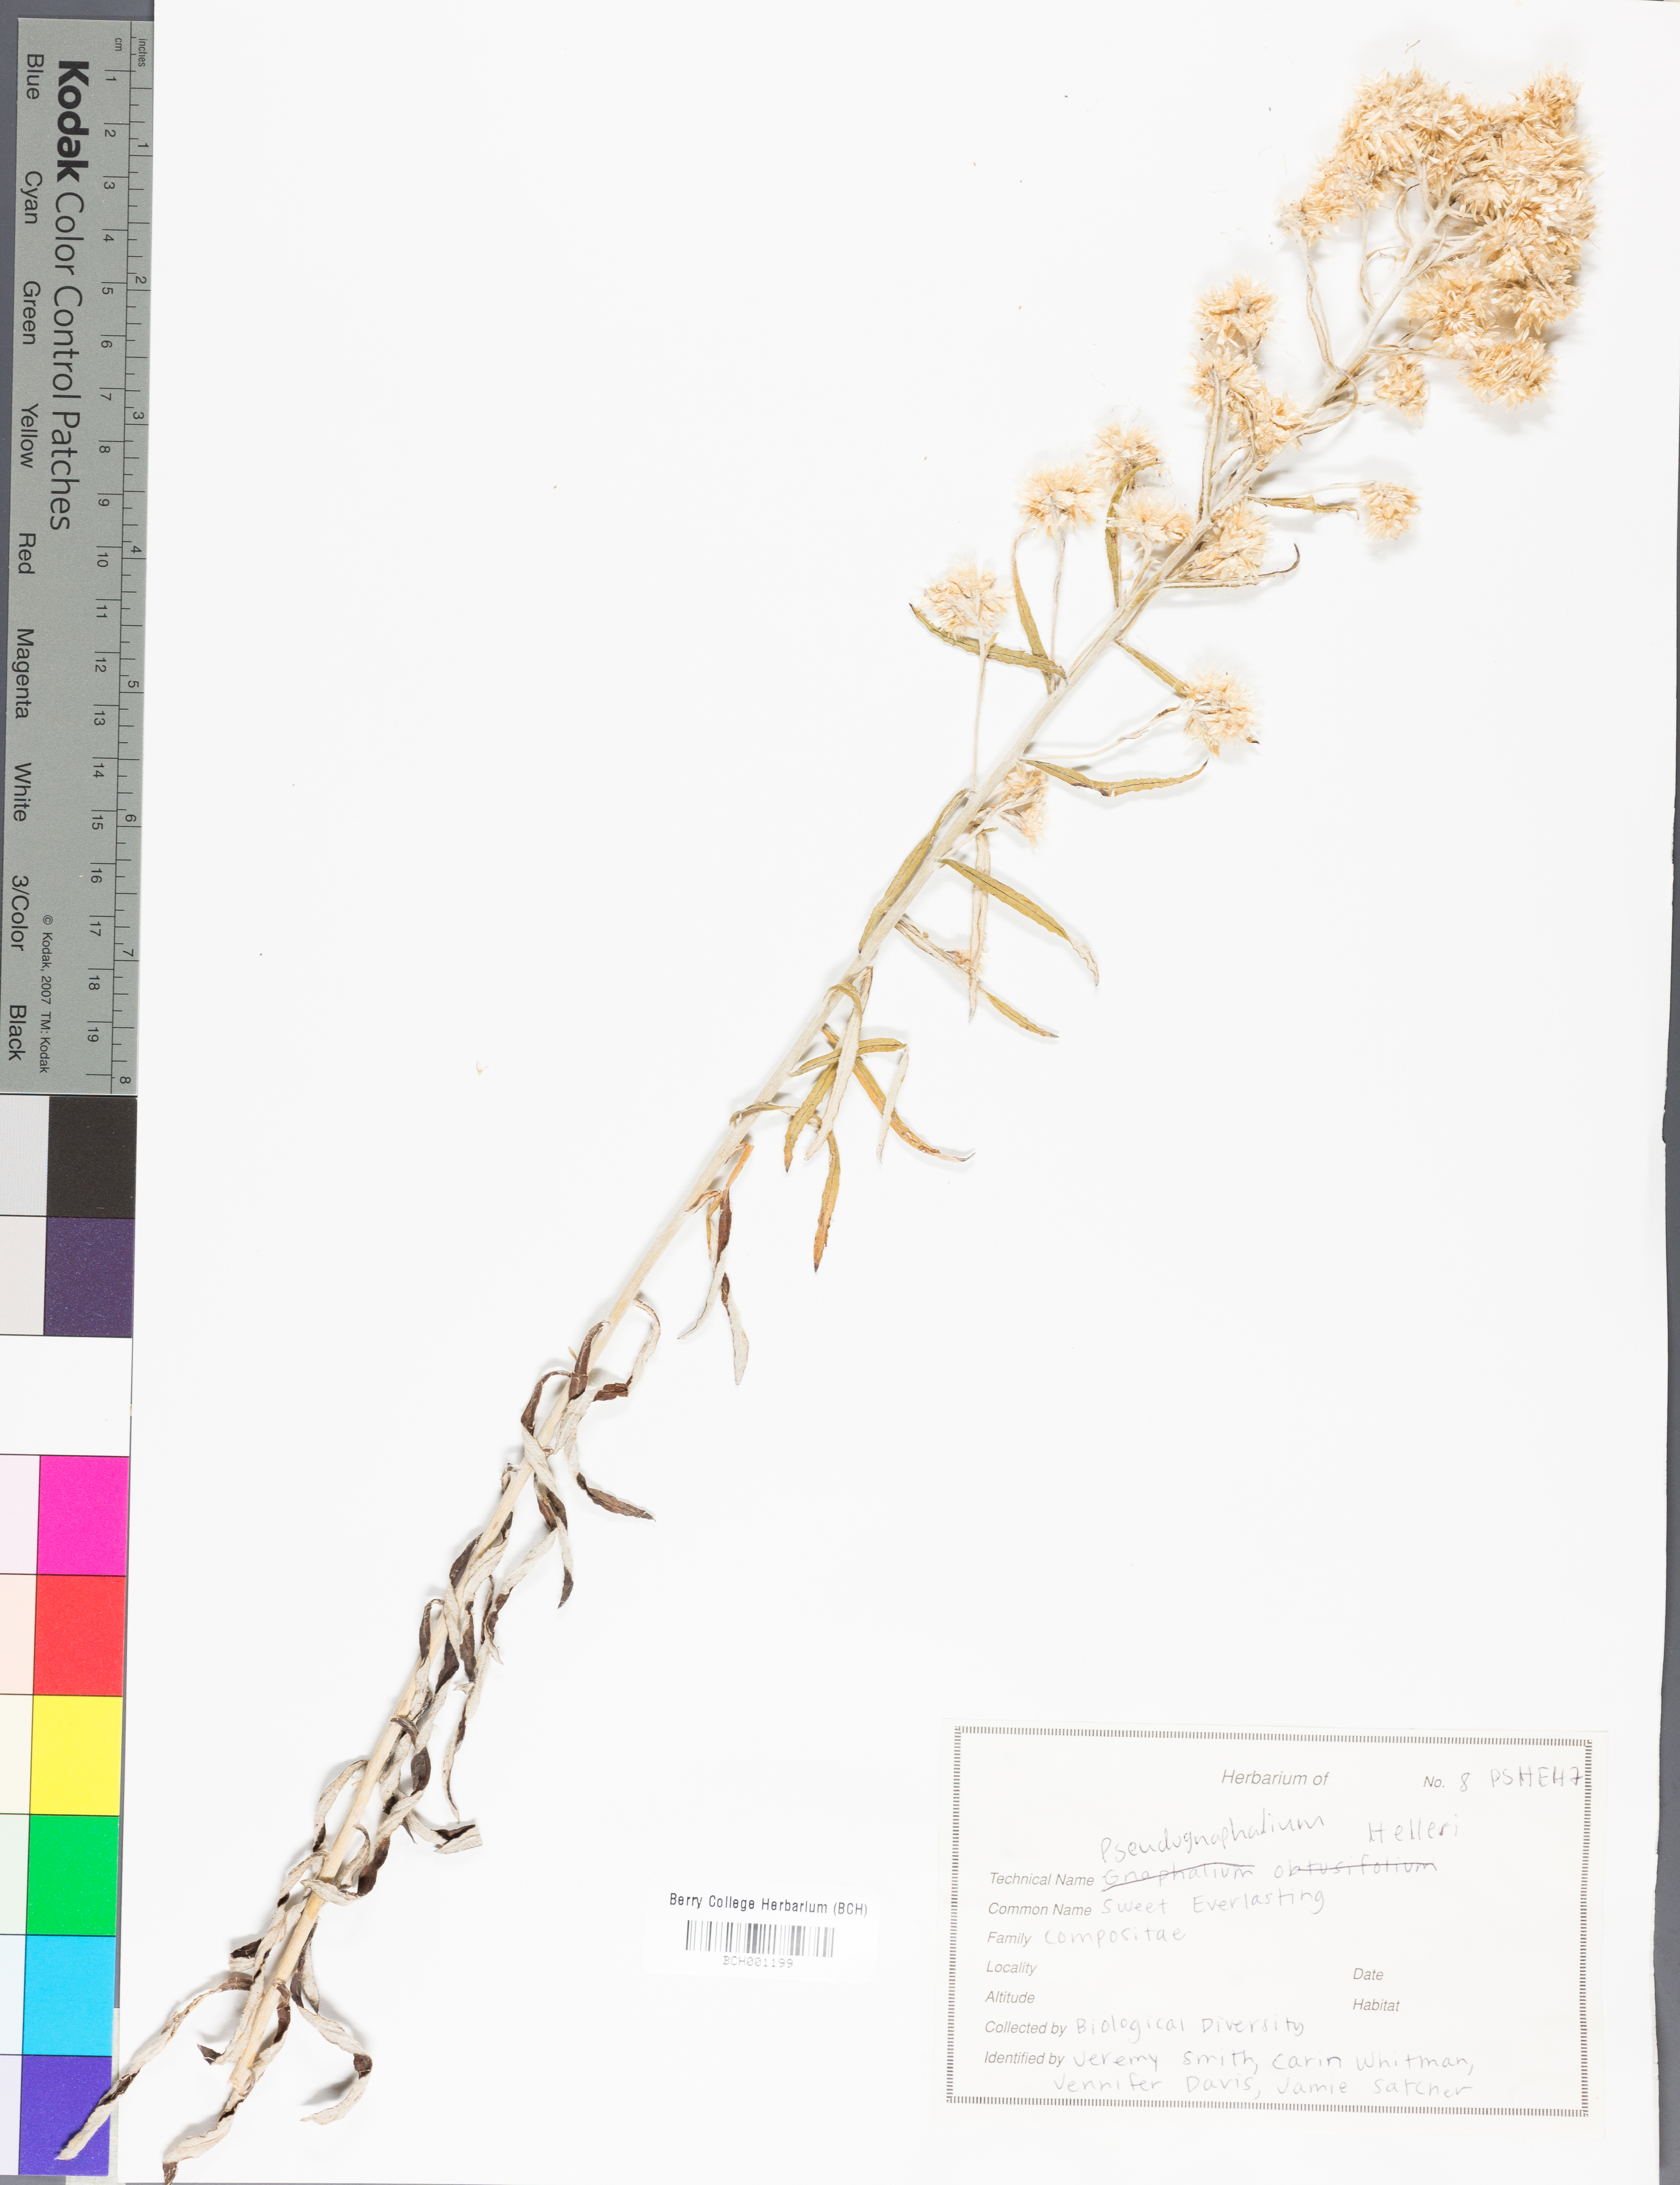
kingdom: Plantae
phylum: Tracheophyta
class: Magnoliopsida
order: Asterales
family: Asteraceae
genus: Pseudognaphalium
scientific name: Pseudognaphalium helleri
